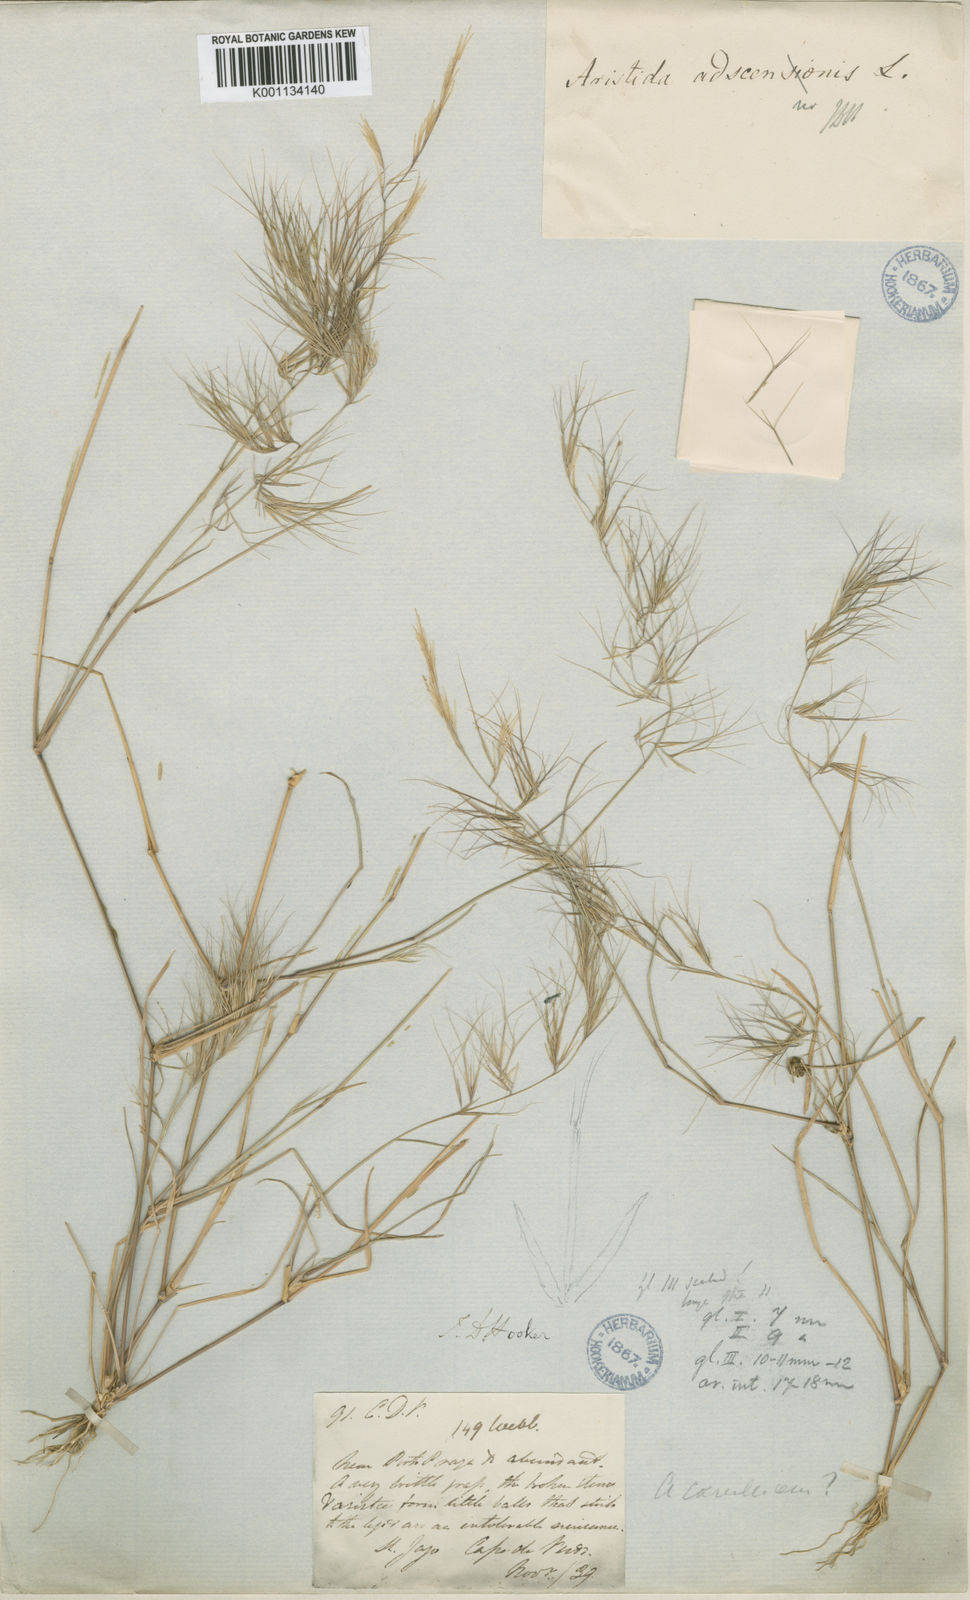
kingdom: Plantae
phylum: Tracheophyta
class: Liliopsida
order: Poales
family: Poaceae
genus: Aristida
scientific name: Aristida adscensionis
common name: Sixweeks threeawn
